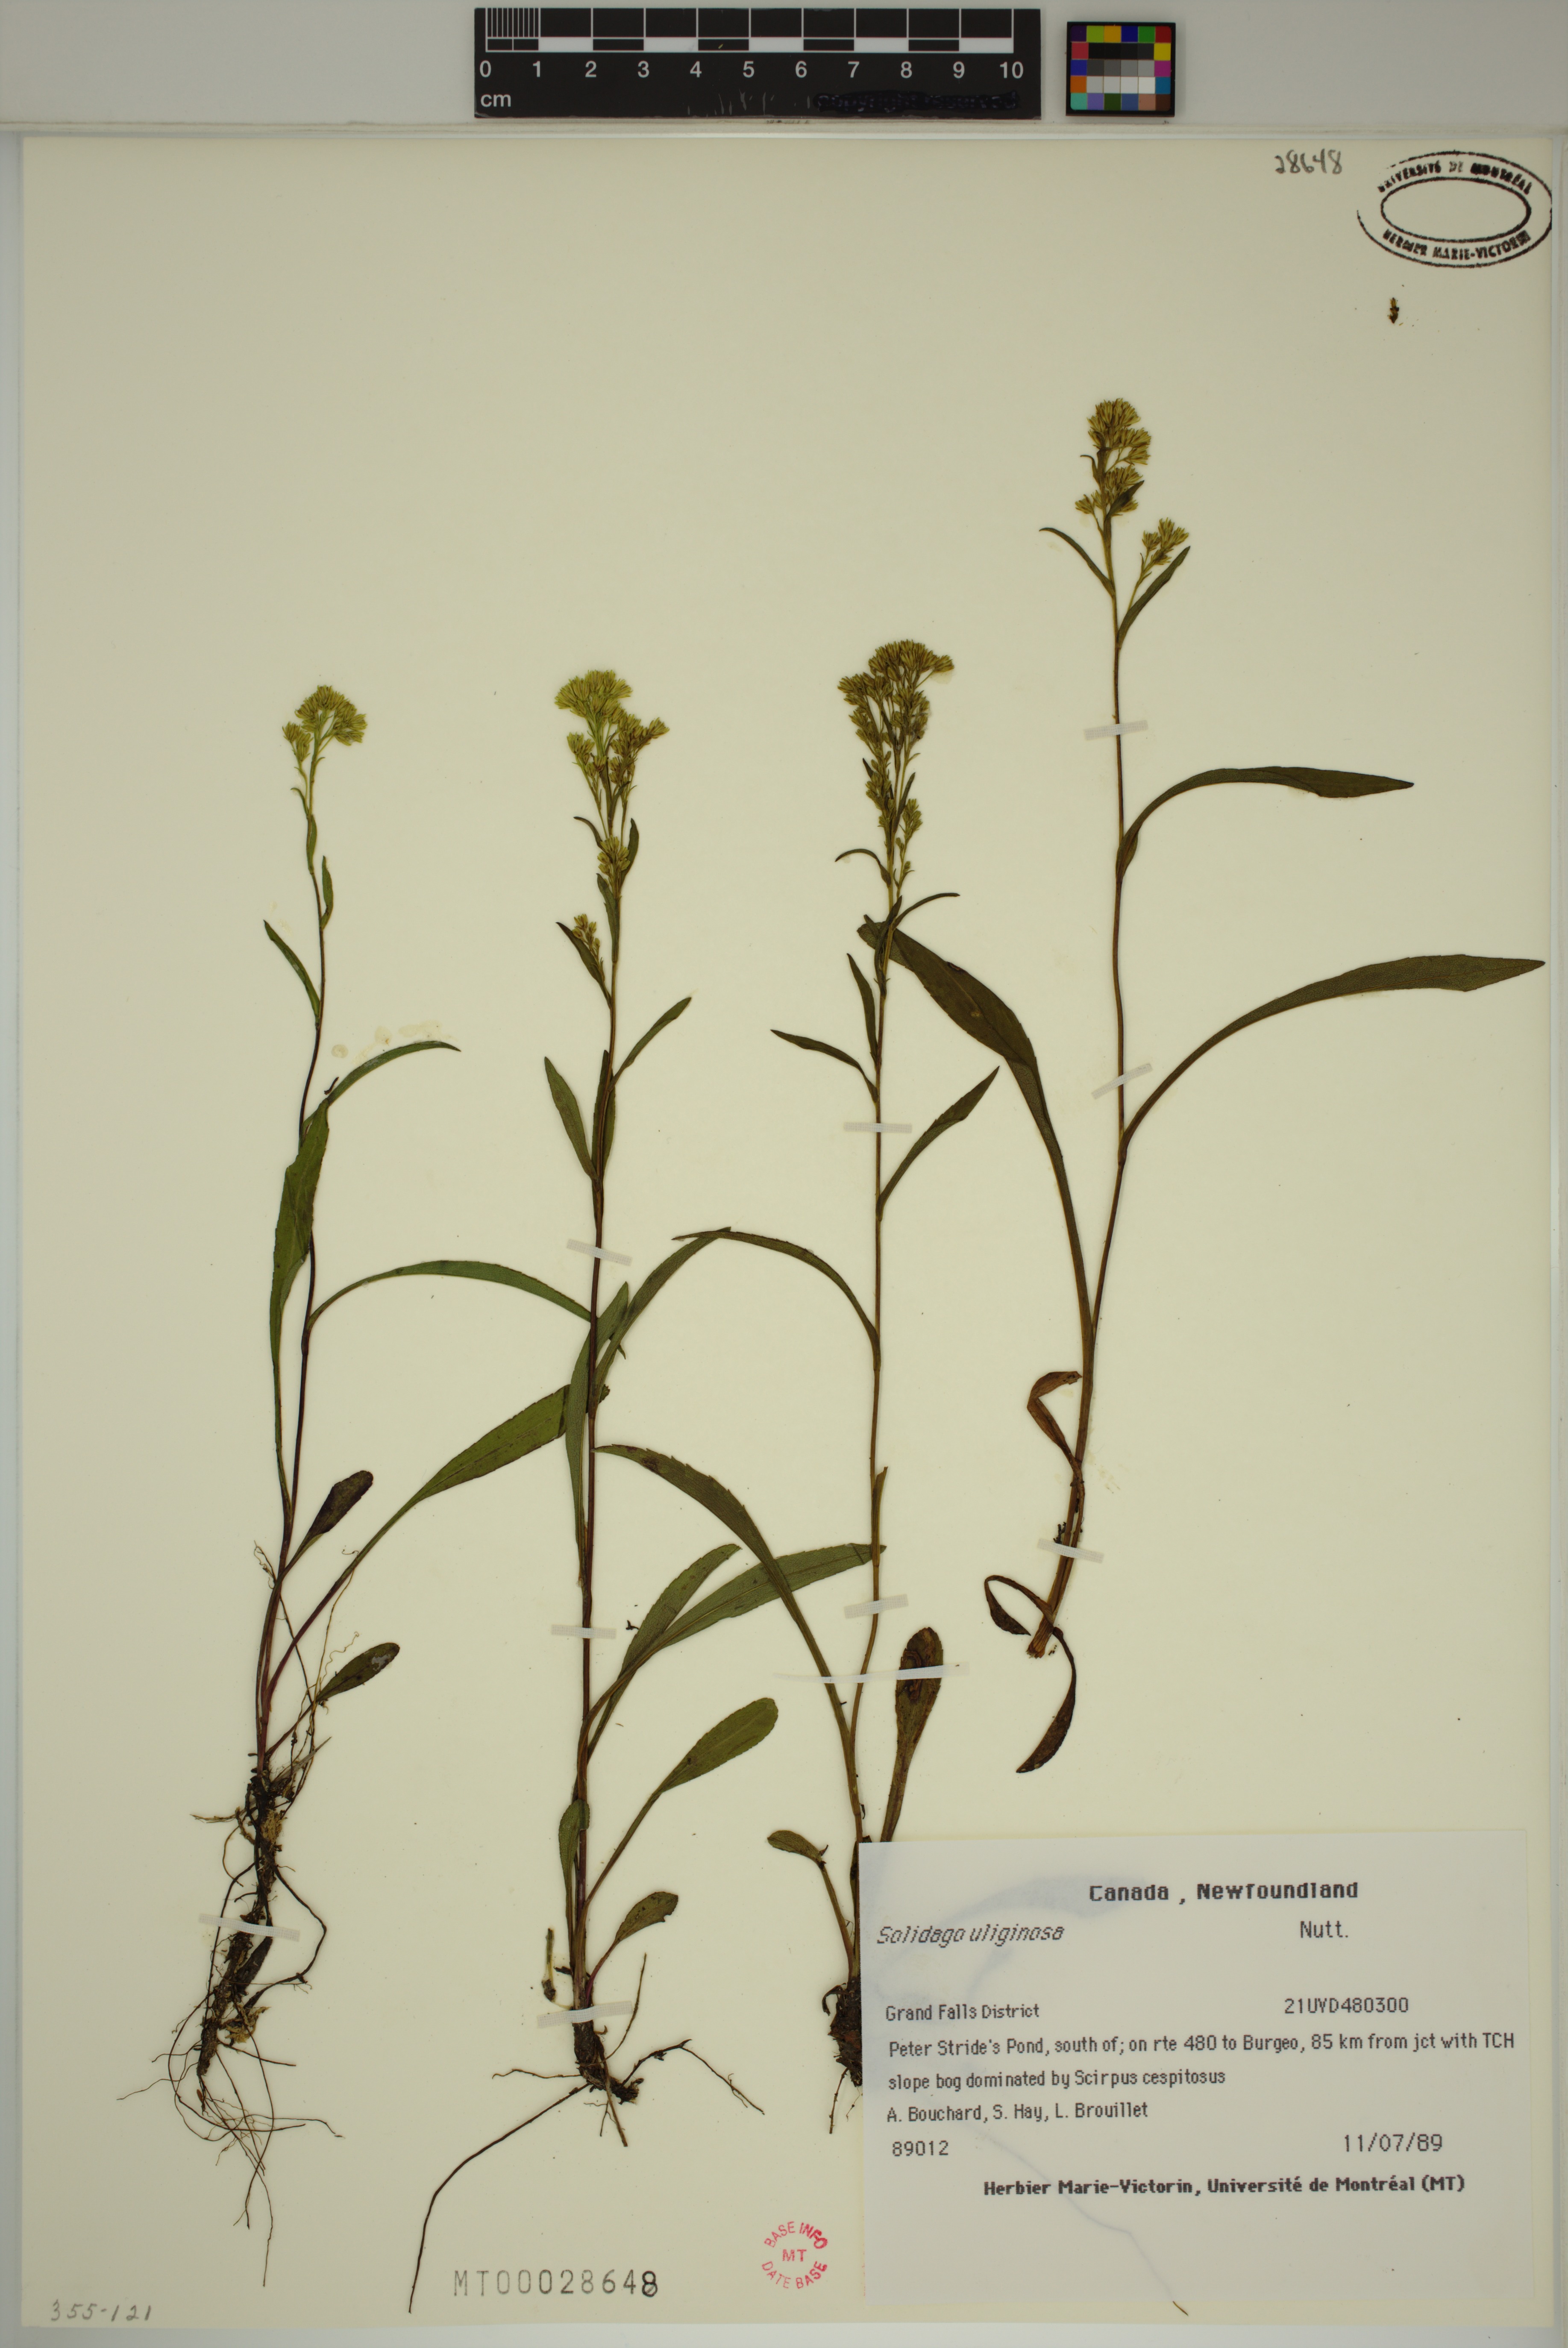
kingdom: Plantae
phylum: Tracheophyta
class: Magnoliopsida
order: Asterales
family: Asteraceae
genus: Solidago
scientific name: Solidago uliginosa
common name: Bog goldenrod
